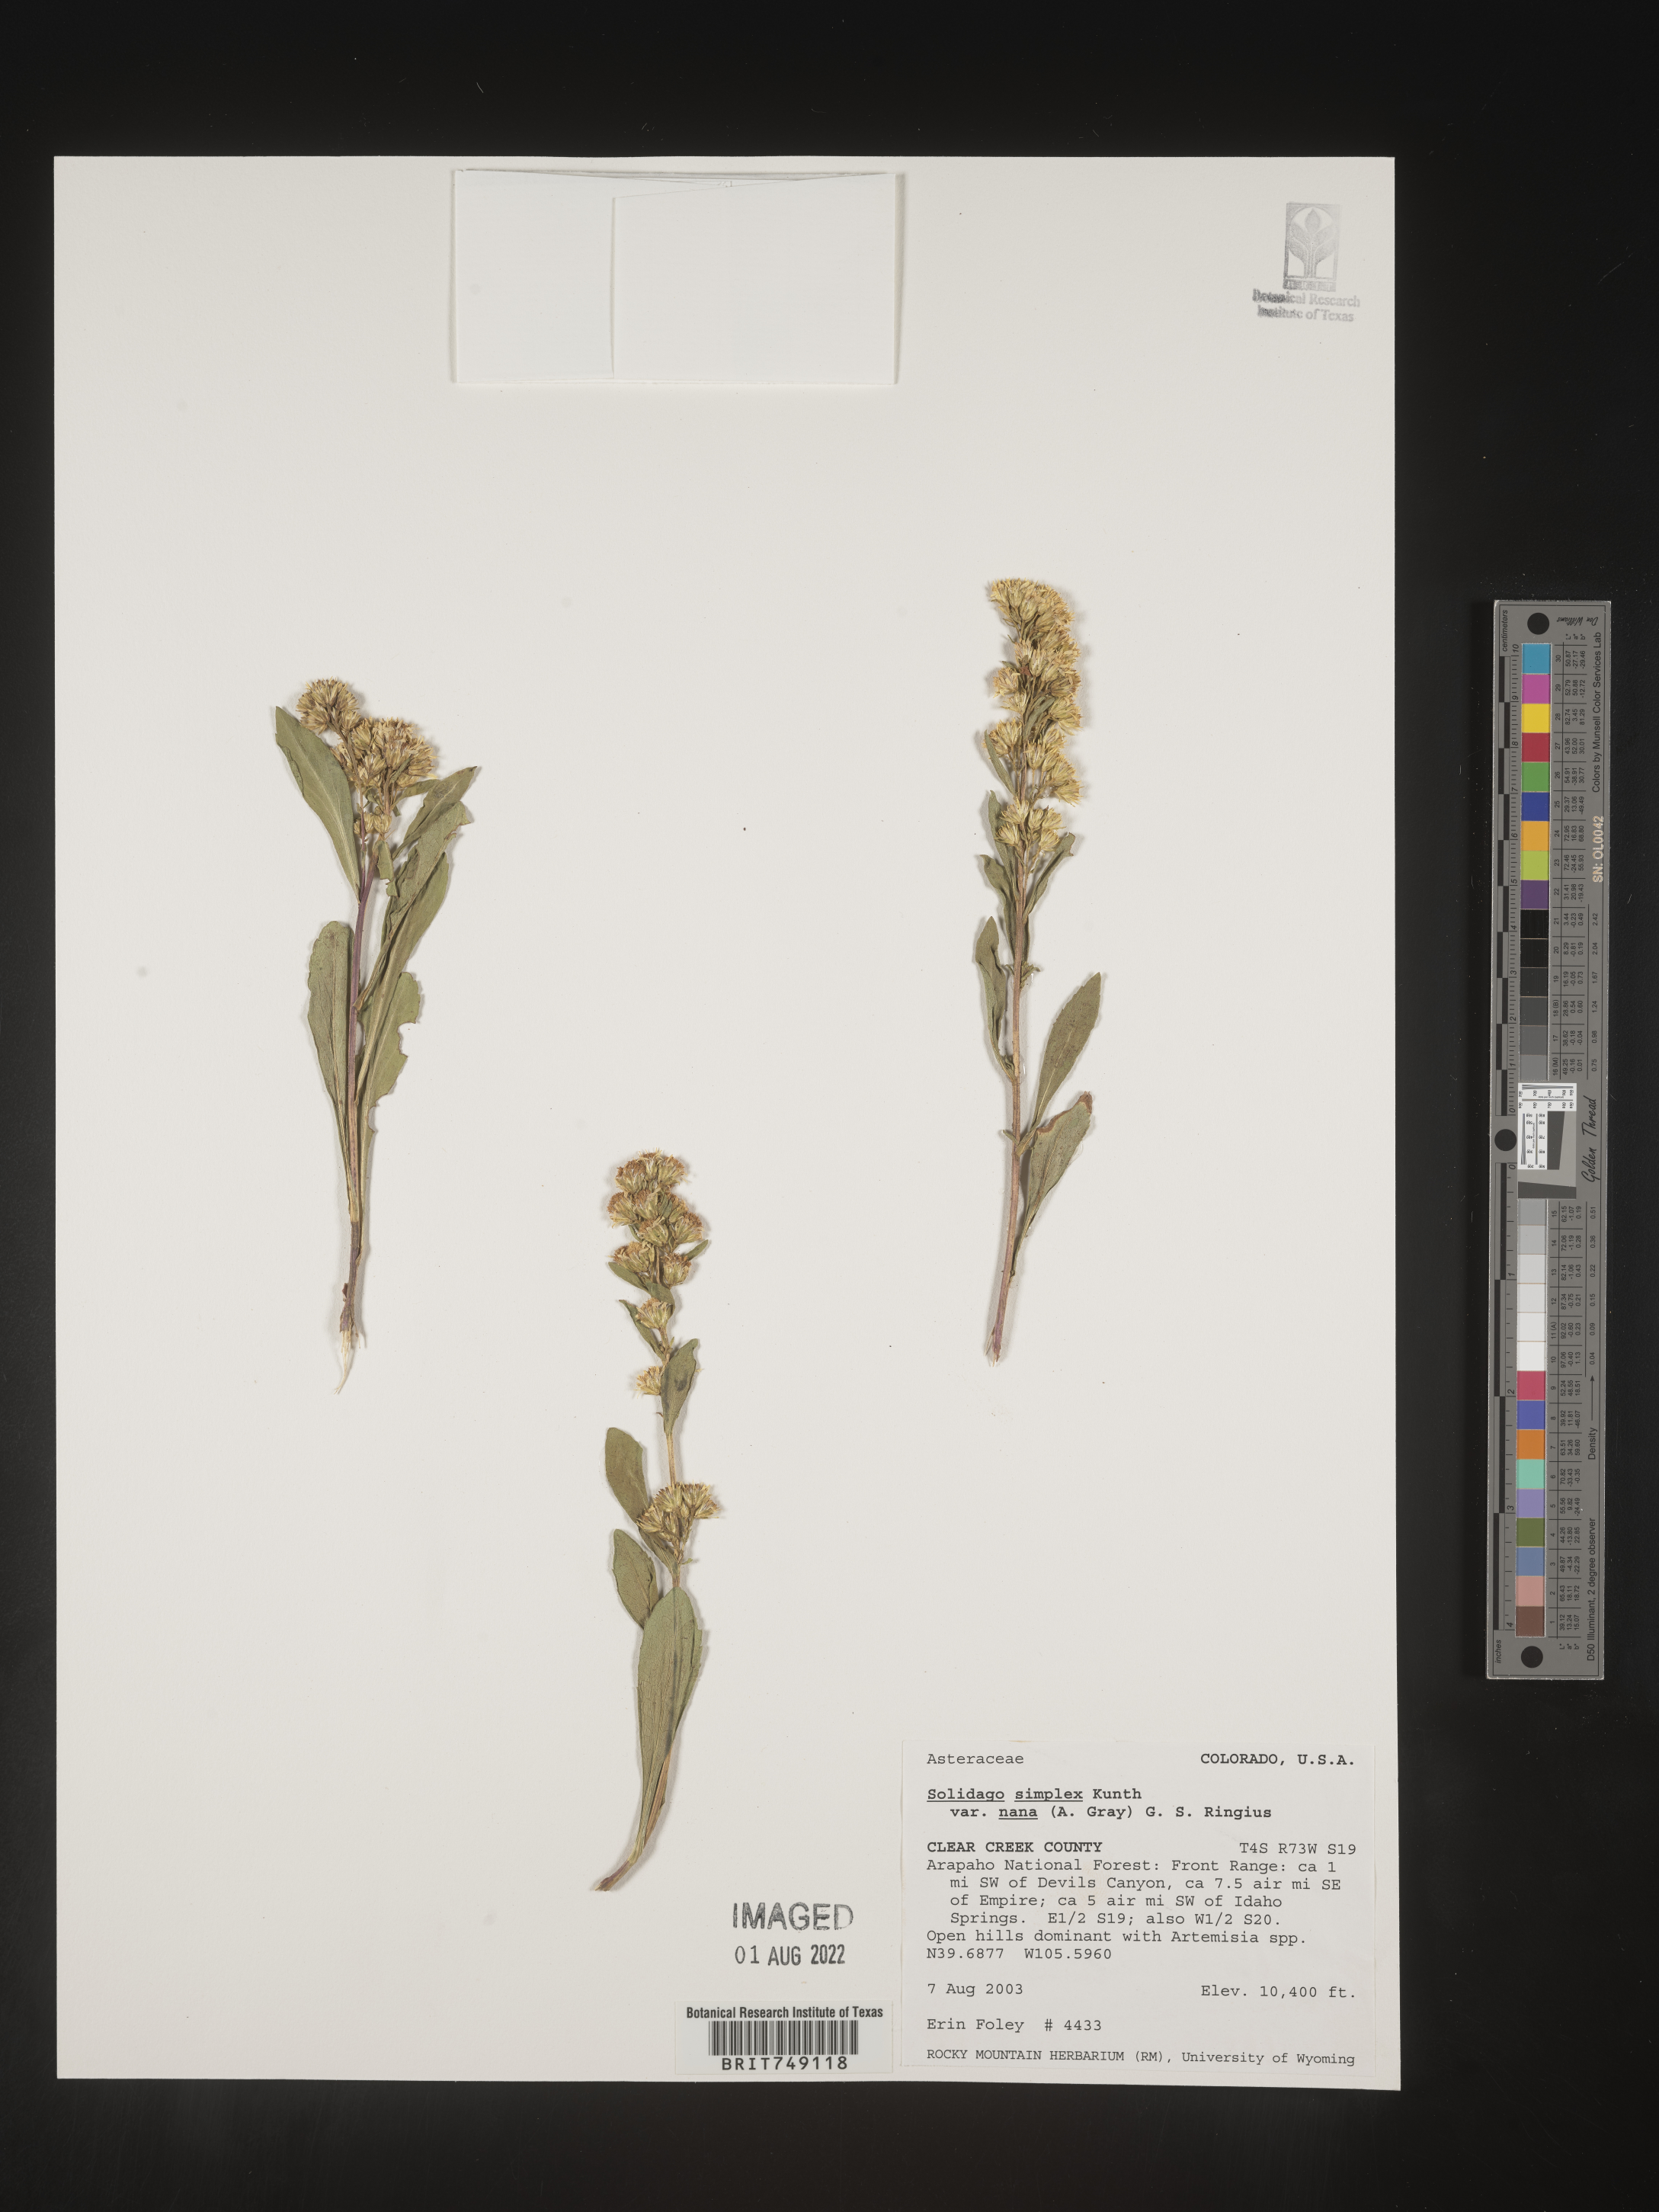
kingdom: Plantae
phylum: Tracheophyta
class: Magnoliopsida
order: Asterales
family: Asteraceae
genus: Solidago
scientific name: Solidago simplex
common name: Sticky goldenrod
